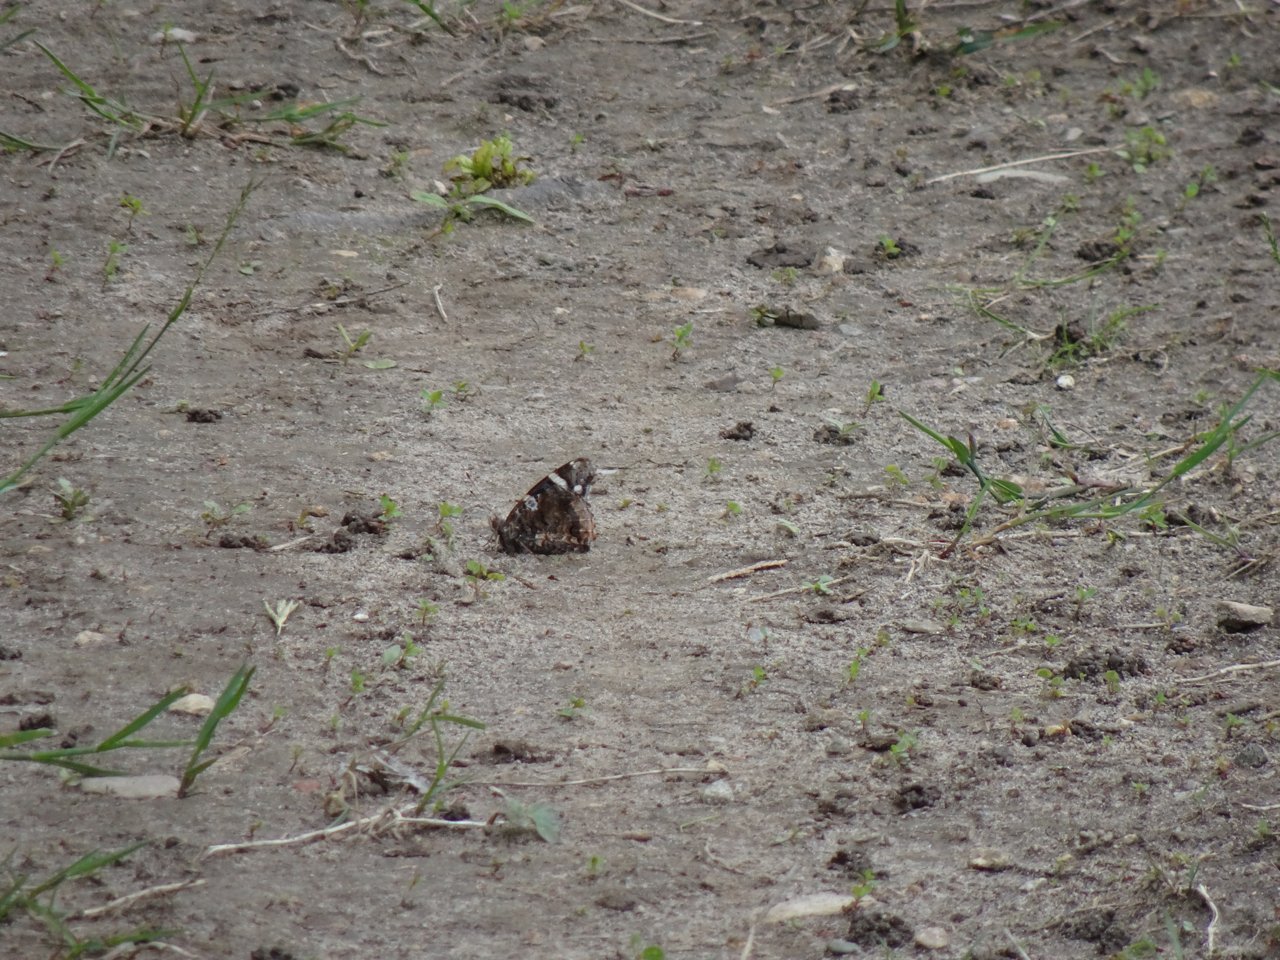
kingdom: Animalia
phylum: Arthropoda
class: Insecta
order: Lepidoptera
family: Nymphalidae
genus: Vanessa
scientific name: Vanessa atalanta
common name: Red Admiral
